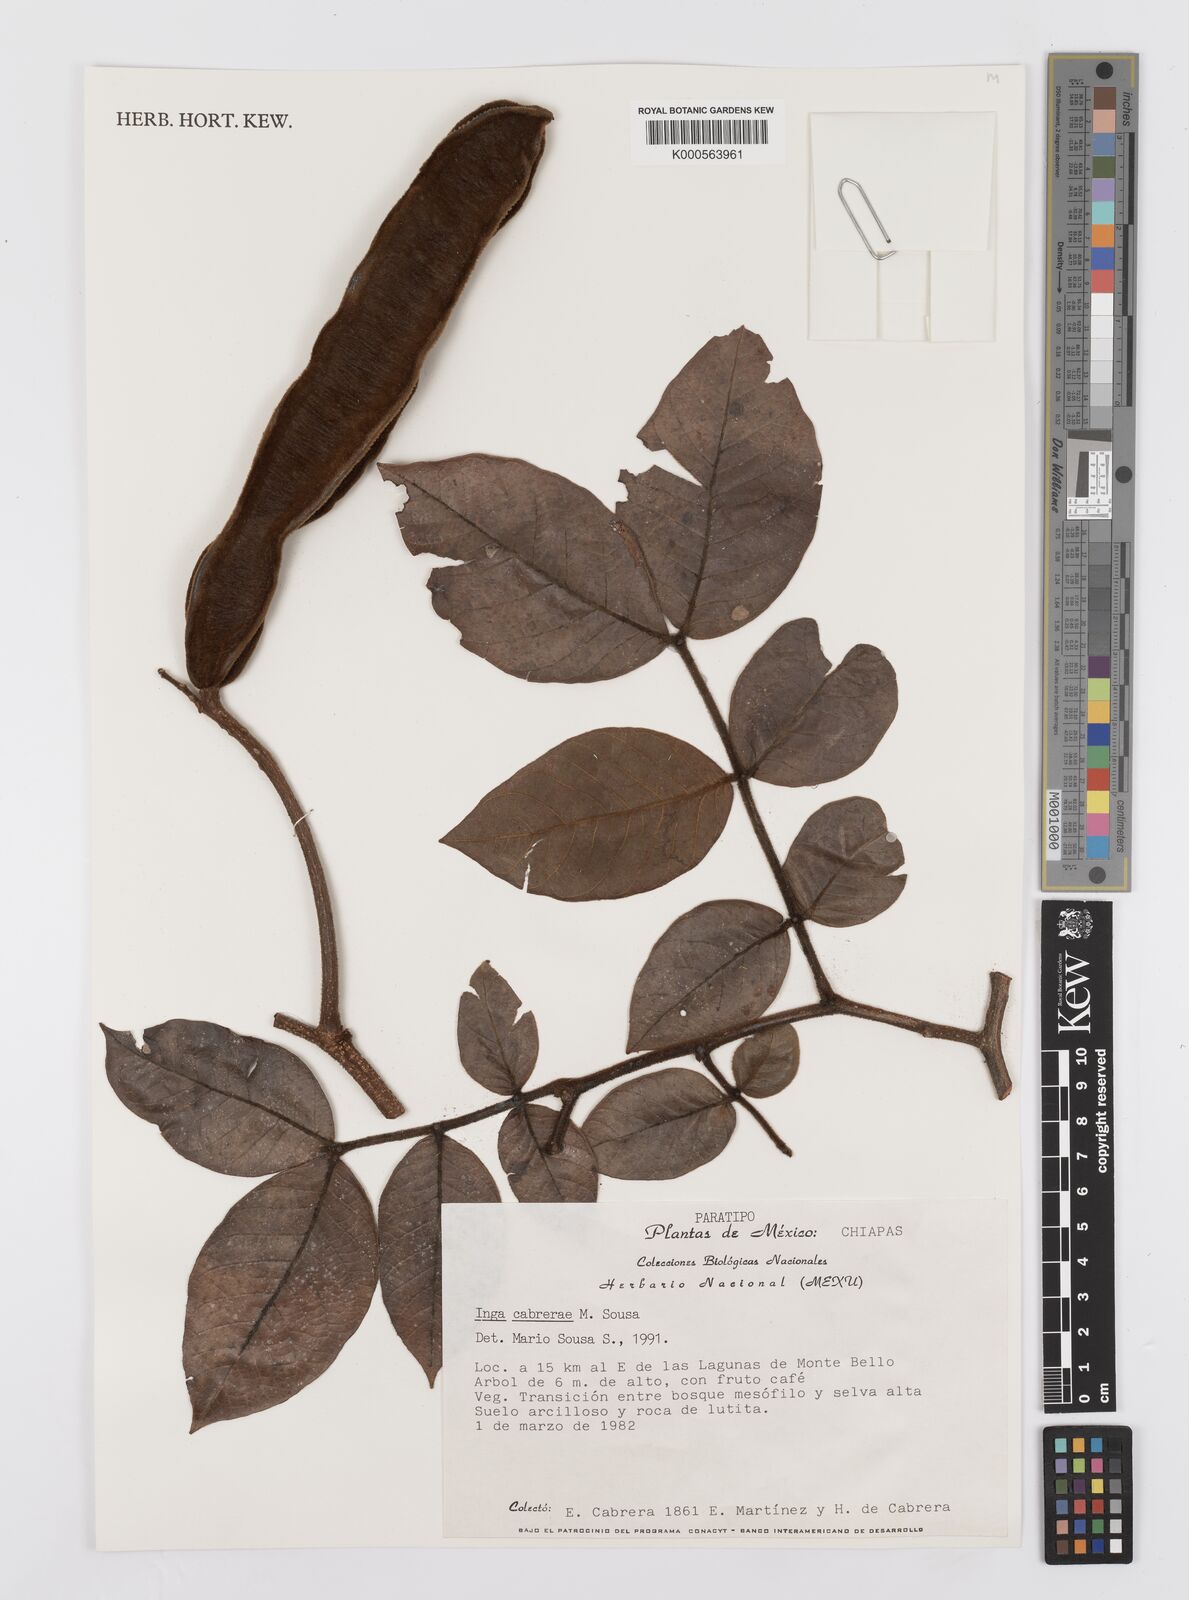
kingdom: Plantae
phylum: Tracheophyta
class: Magnoliopsida
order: Fabales
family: Fabaceae
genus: Inga
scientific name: Inga cabrerae
